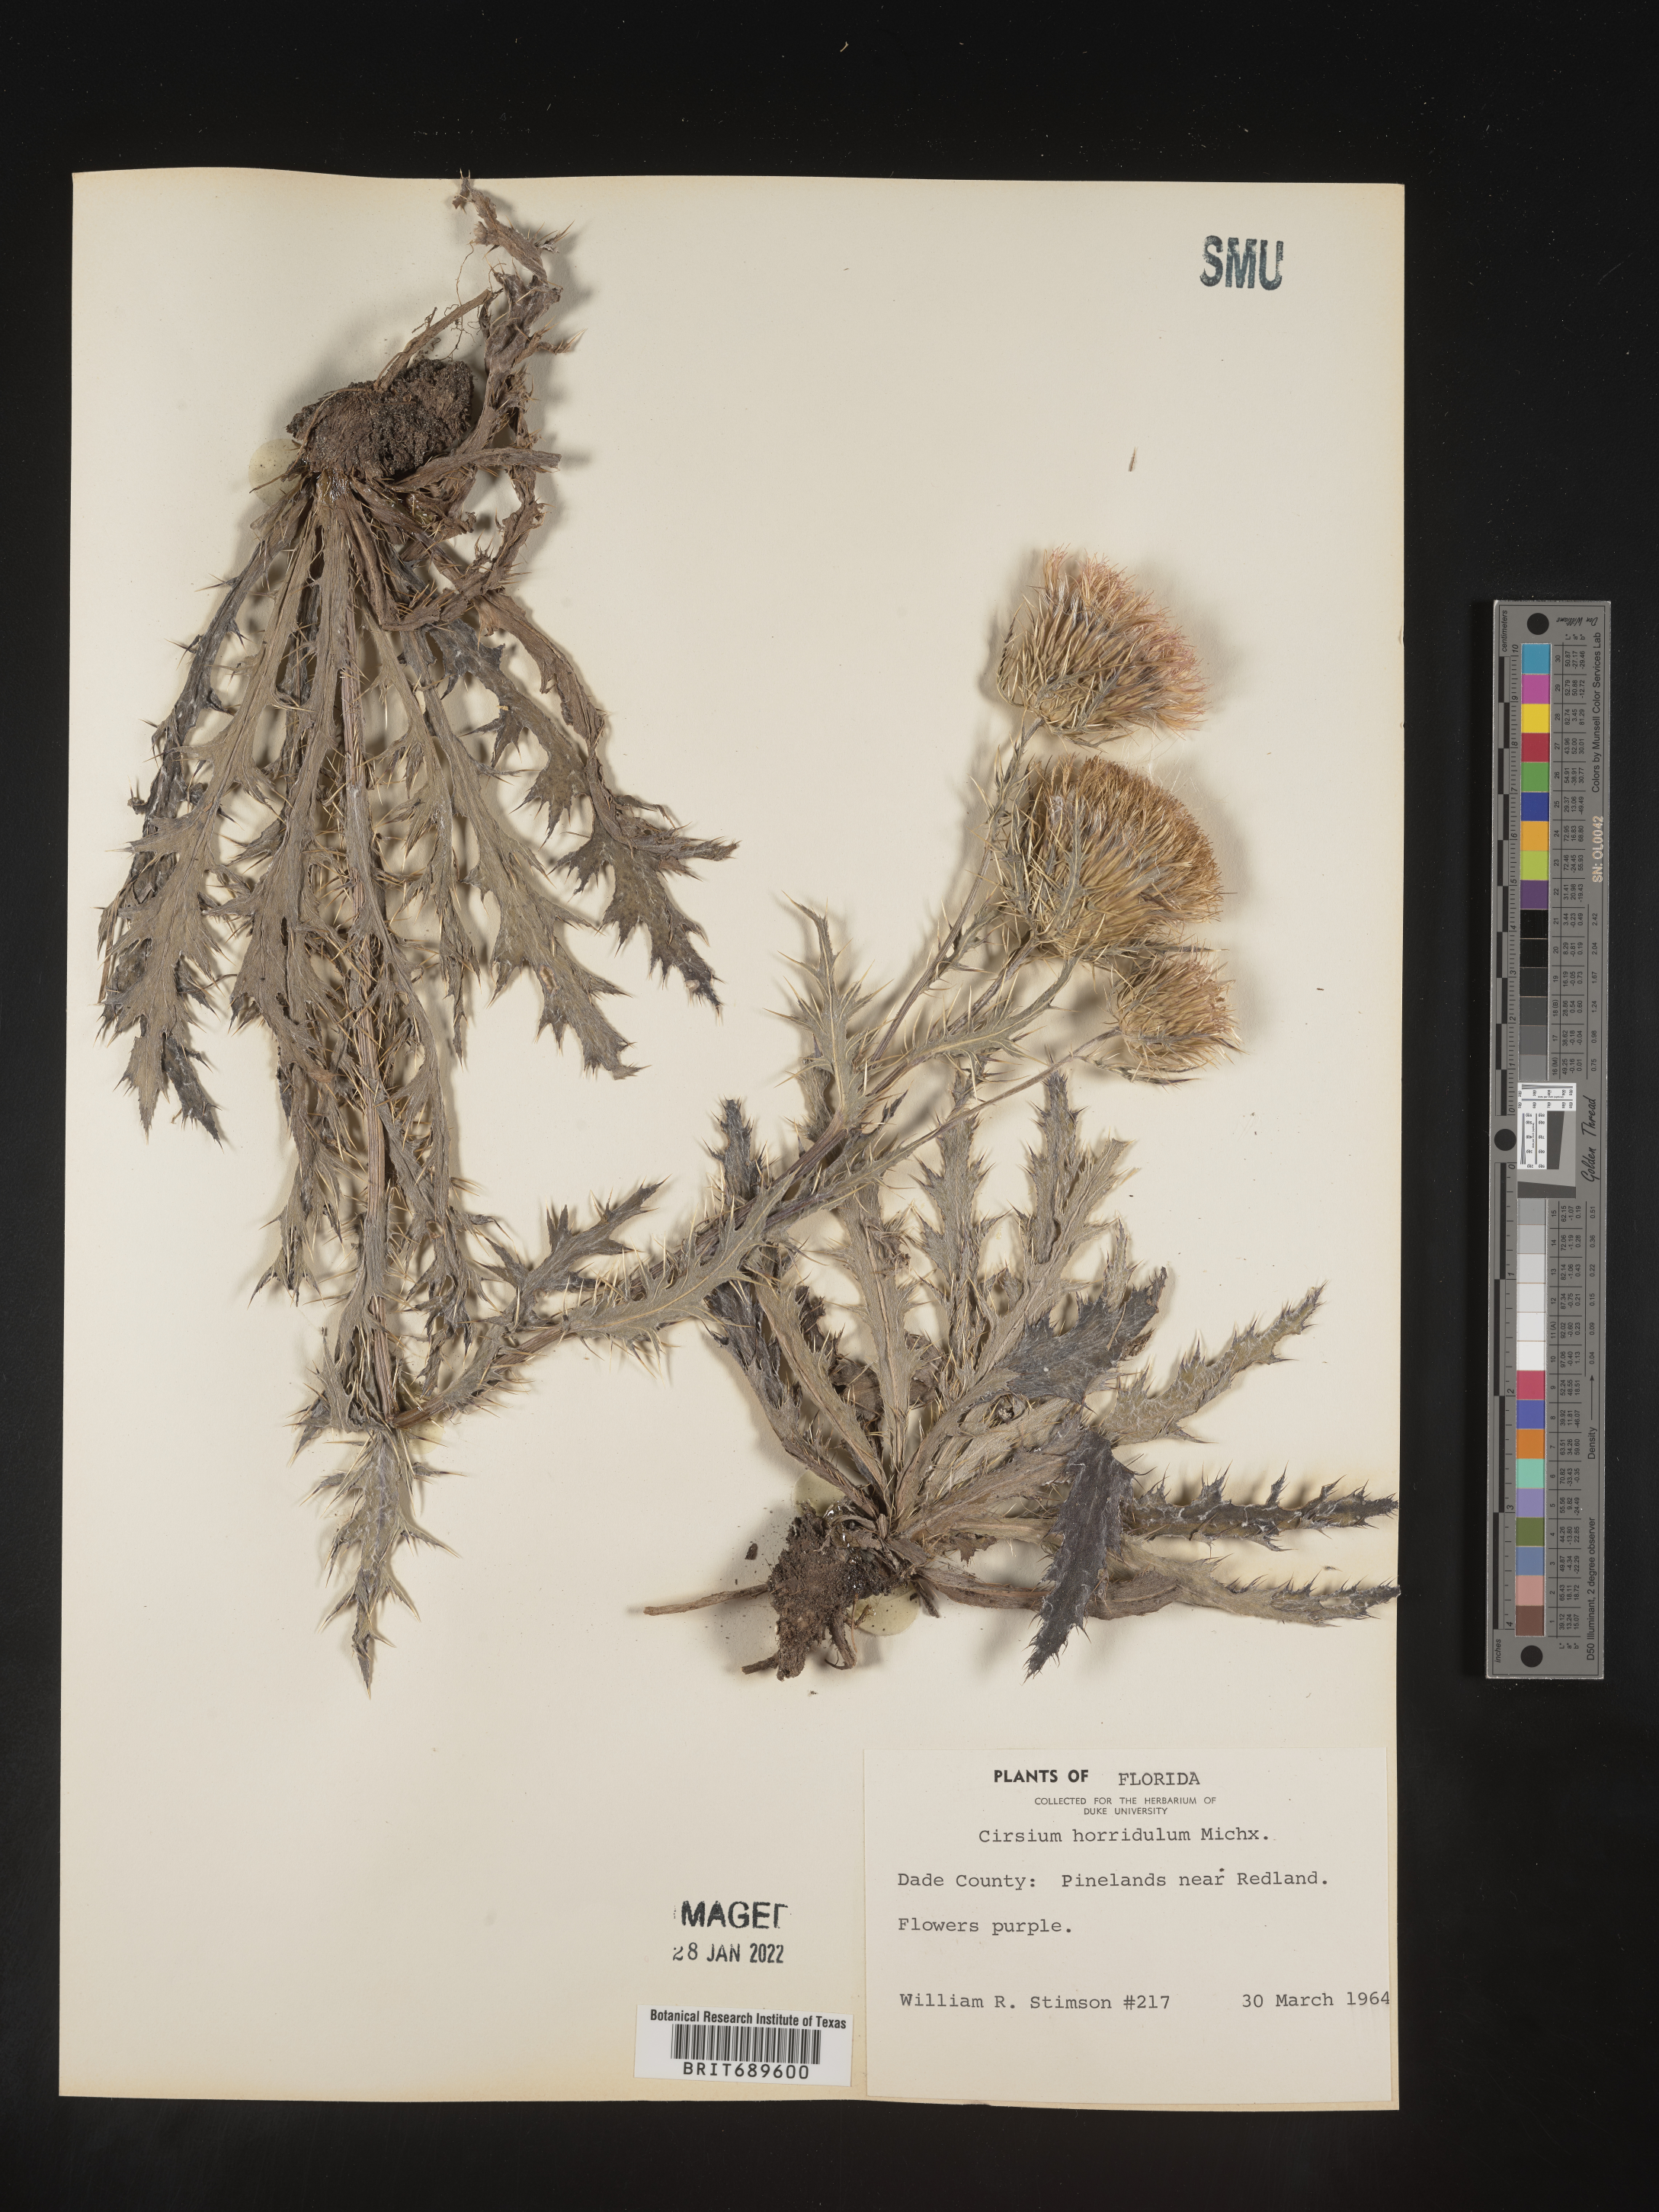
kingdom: Plantae
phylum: Tracheophyta
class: Magnoliopsida
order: Asterales
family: Asteraceae
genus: Cirsium
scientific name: Cirsium horridulum
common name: Bristly thistle
